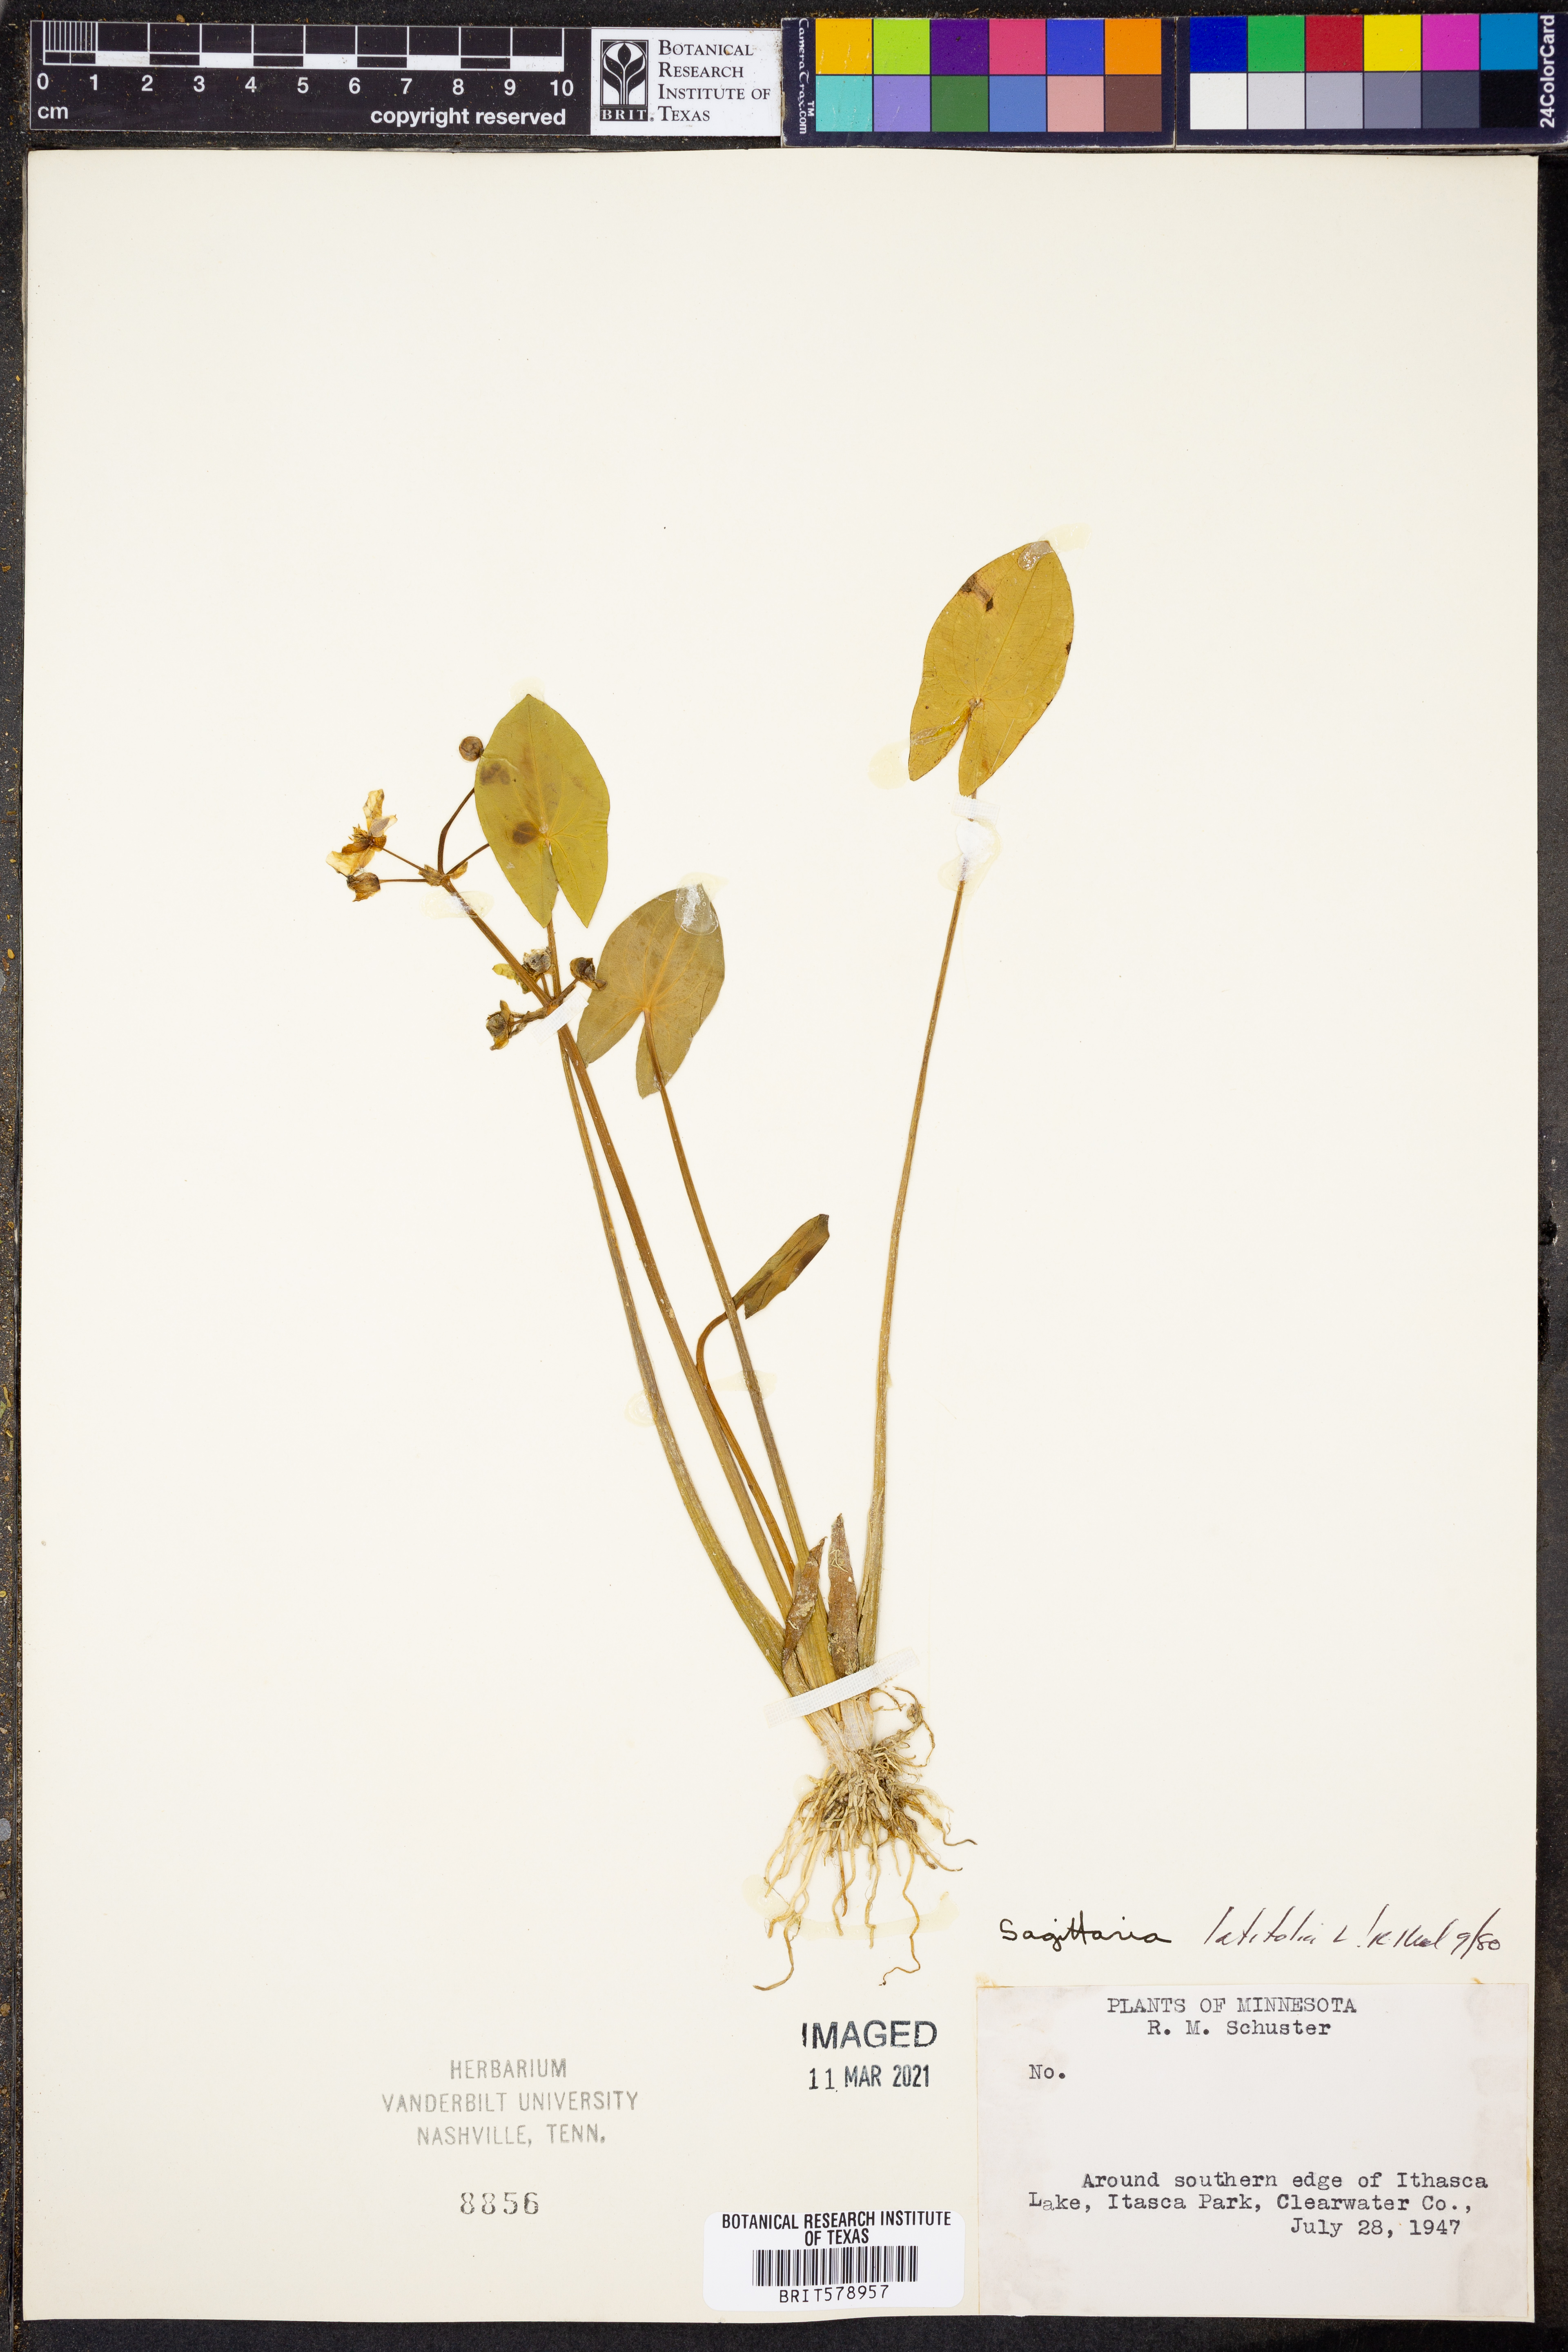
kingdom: Plantae
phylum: Tracheophyta
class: Liliopsida
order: Alismatales
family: Alismataceae
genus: Sagittaria
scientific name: Sagittaria latifolia
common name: Duck-potato
